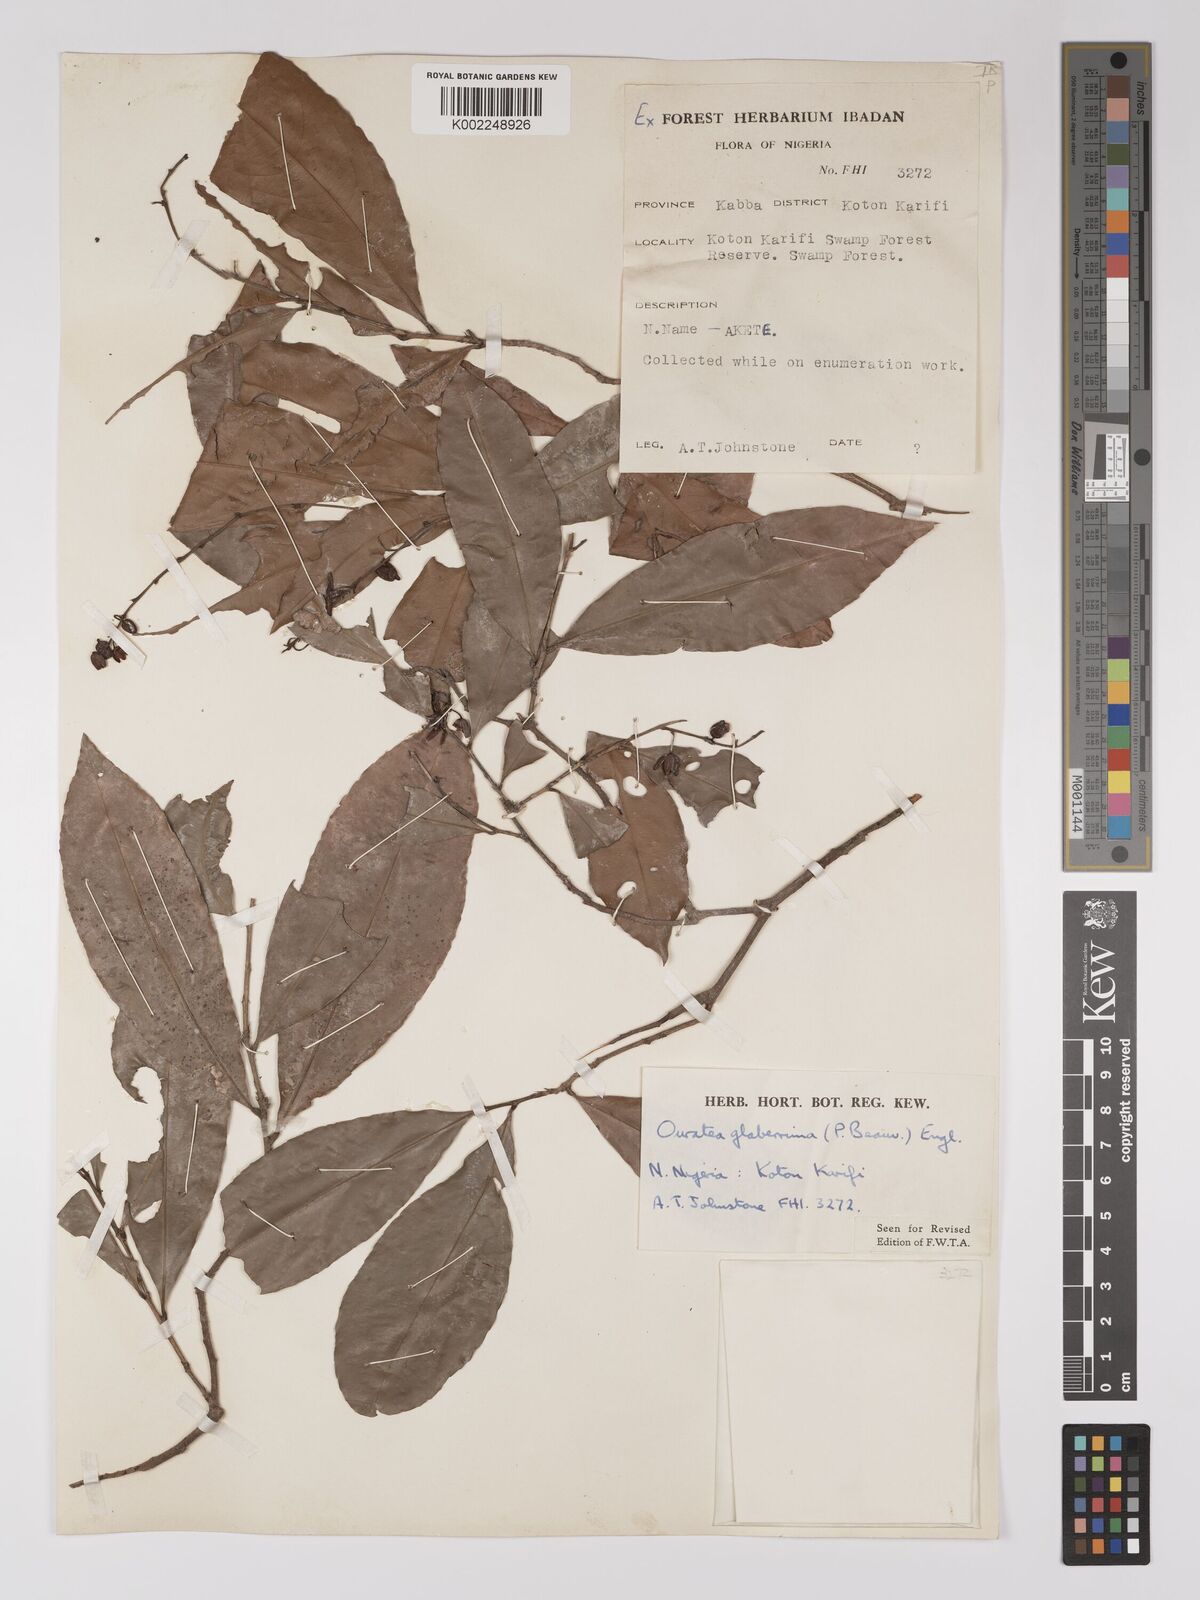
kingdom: Plantae
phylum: Tracheophyta
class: Magnoliopsida
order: Malpighiales
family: Ochnaceae
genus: Campylospermum
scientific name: Campylospermum glaberrimum
